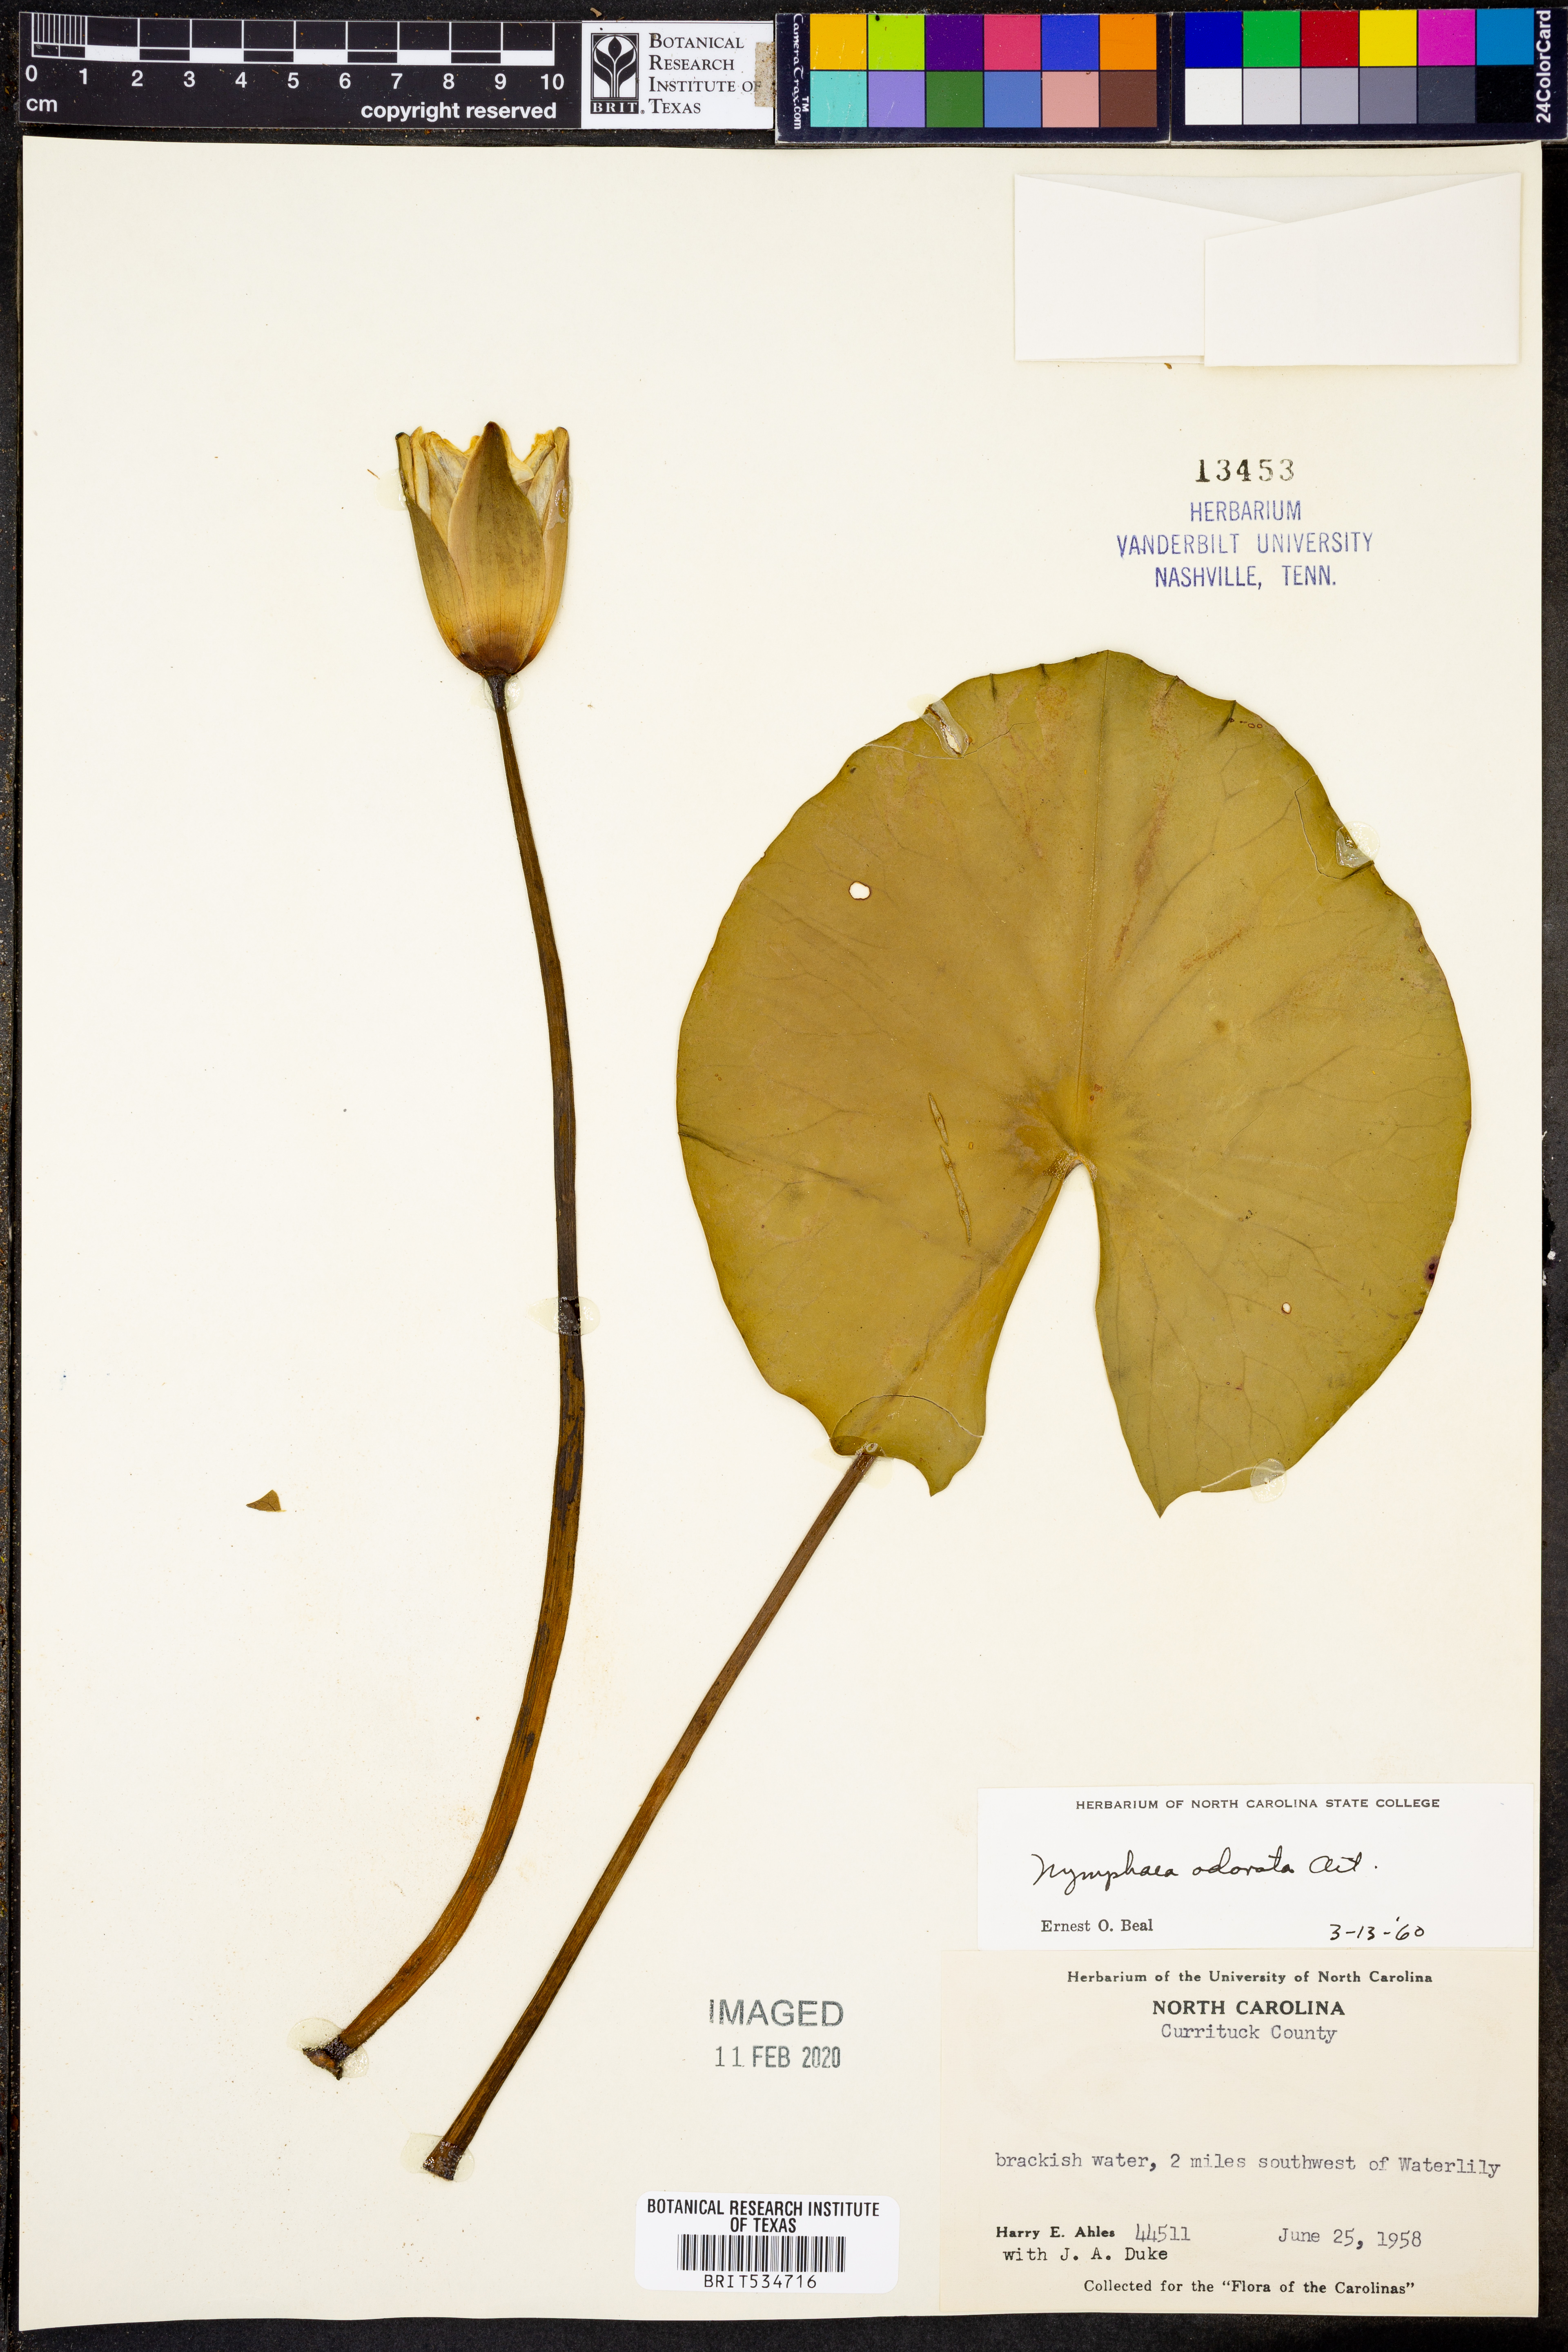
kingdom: Plantae
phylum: Tracheophyta
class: Magnoliopsida
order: Nymphaeales
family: Nymphaeaceae
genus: Nymphaea
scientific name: Nymphaea odorata
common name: Fragrant water-lily
